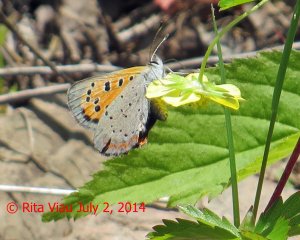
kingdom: Animalia
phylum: Arthropoda
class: Insecta
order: Lepidoptera
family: Lycaenidae
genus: Lycaena
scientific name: Lycaena phlaeas
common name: American Copper
